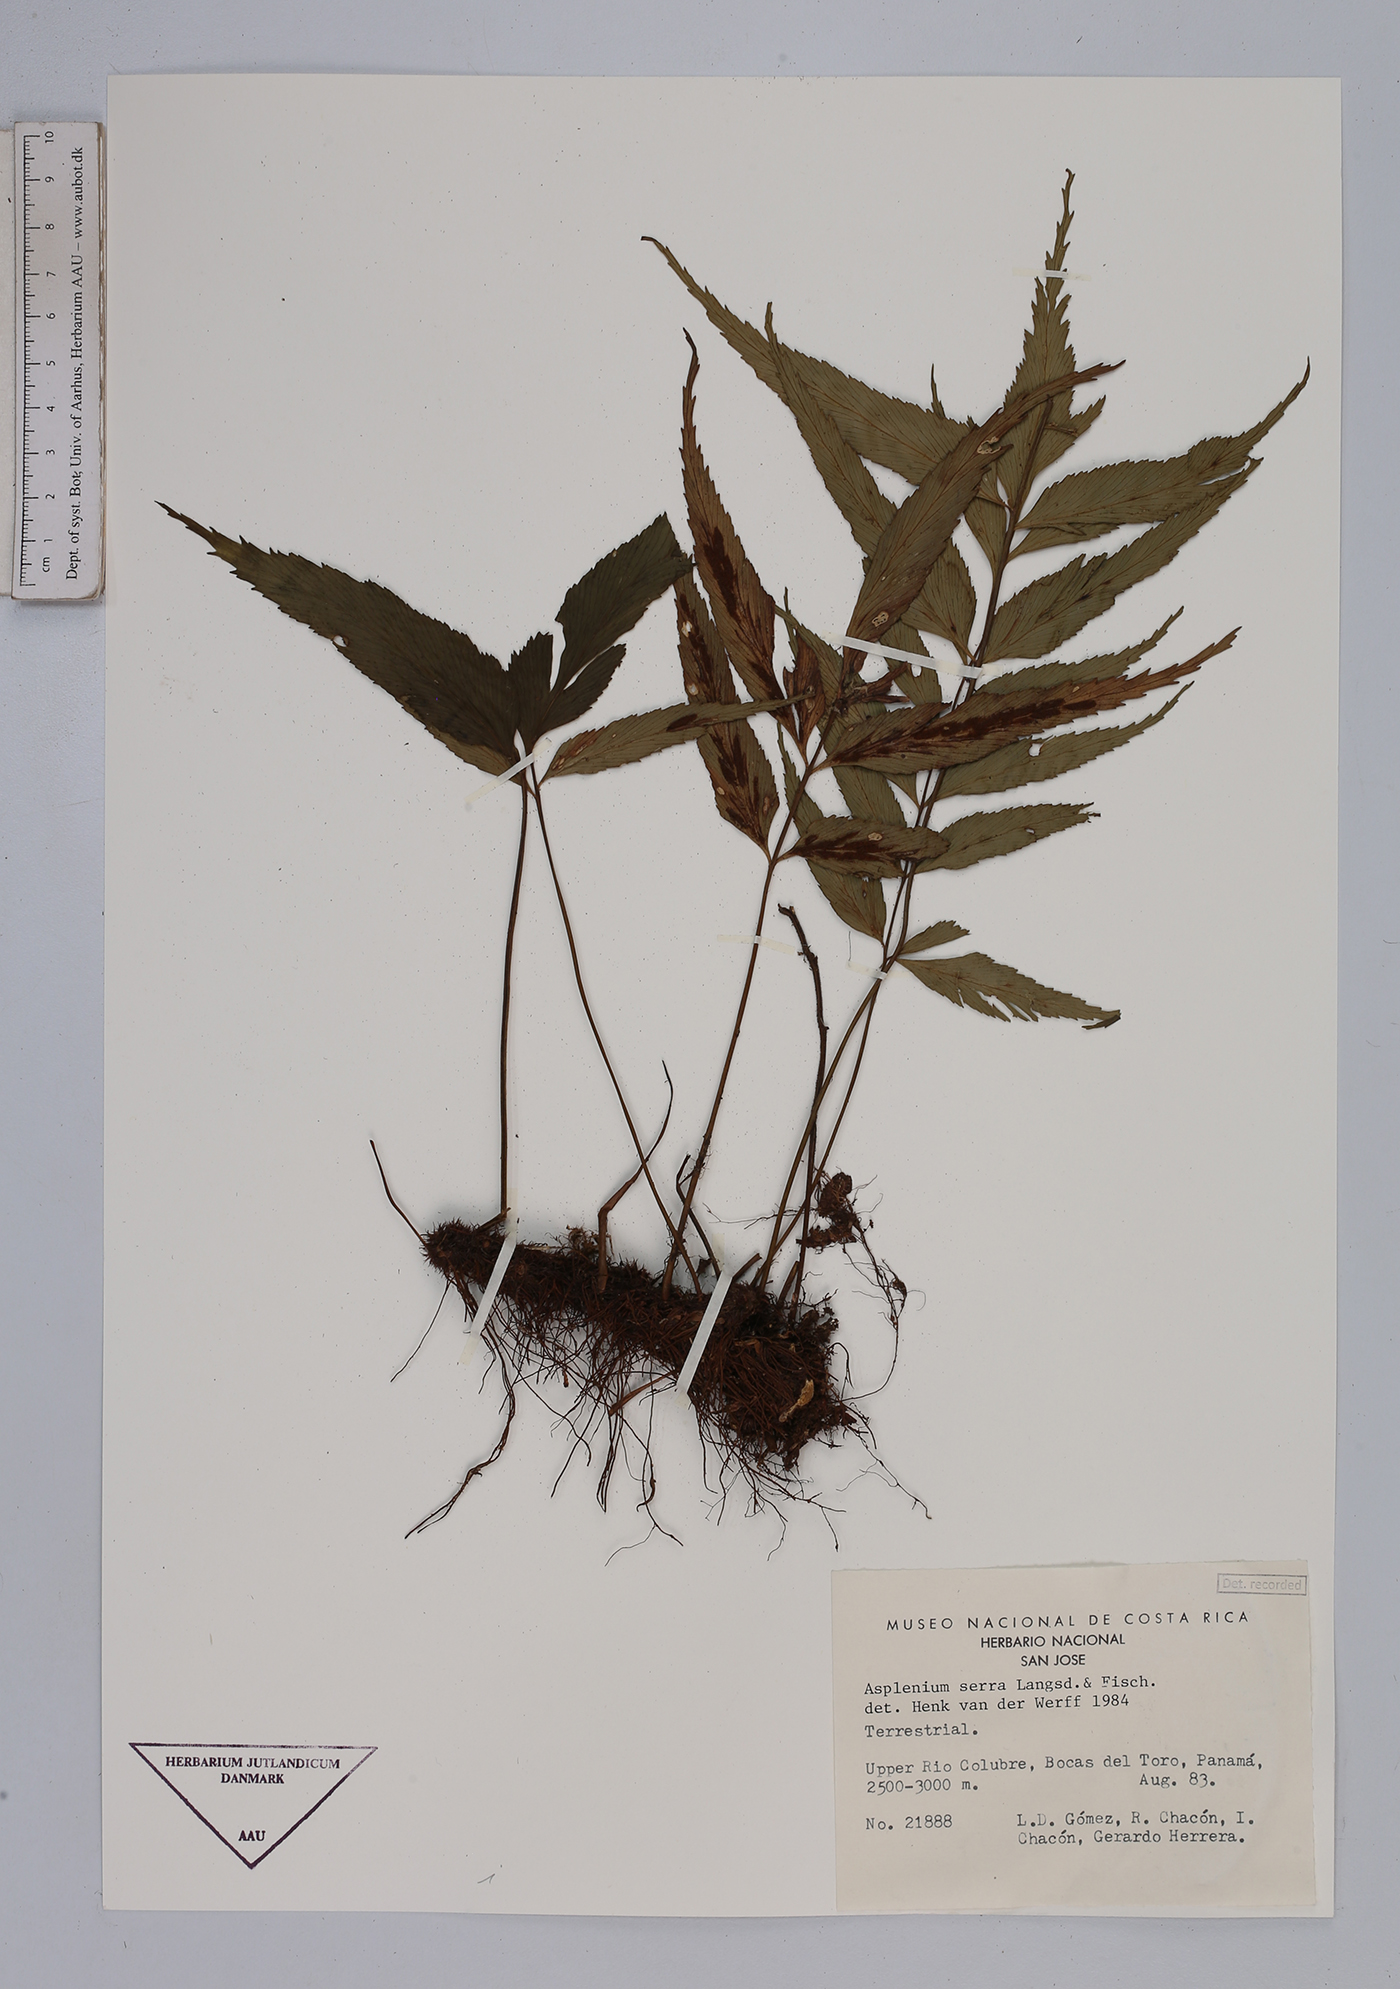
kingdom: Plantae
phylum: Tracheophyta
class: Polypodiopsida
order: Polypodiales
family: Aspleniaceae
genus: Asplenium
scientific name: Asplenium serra
